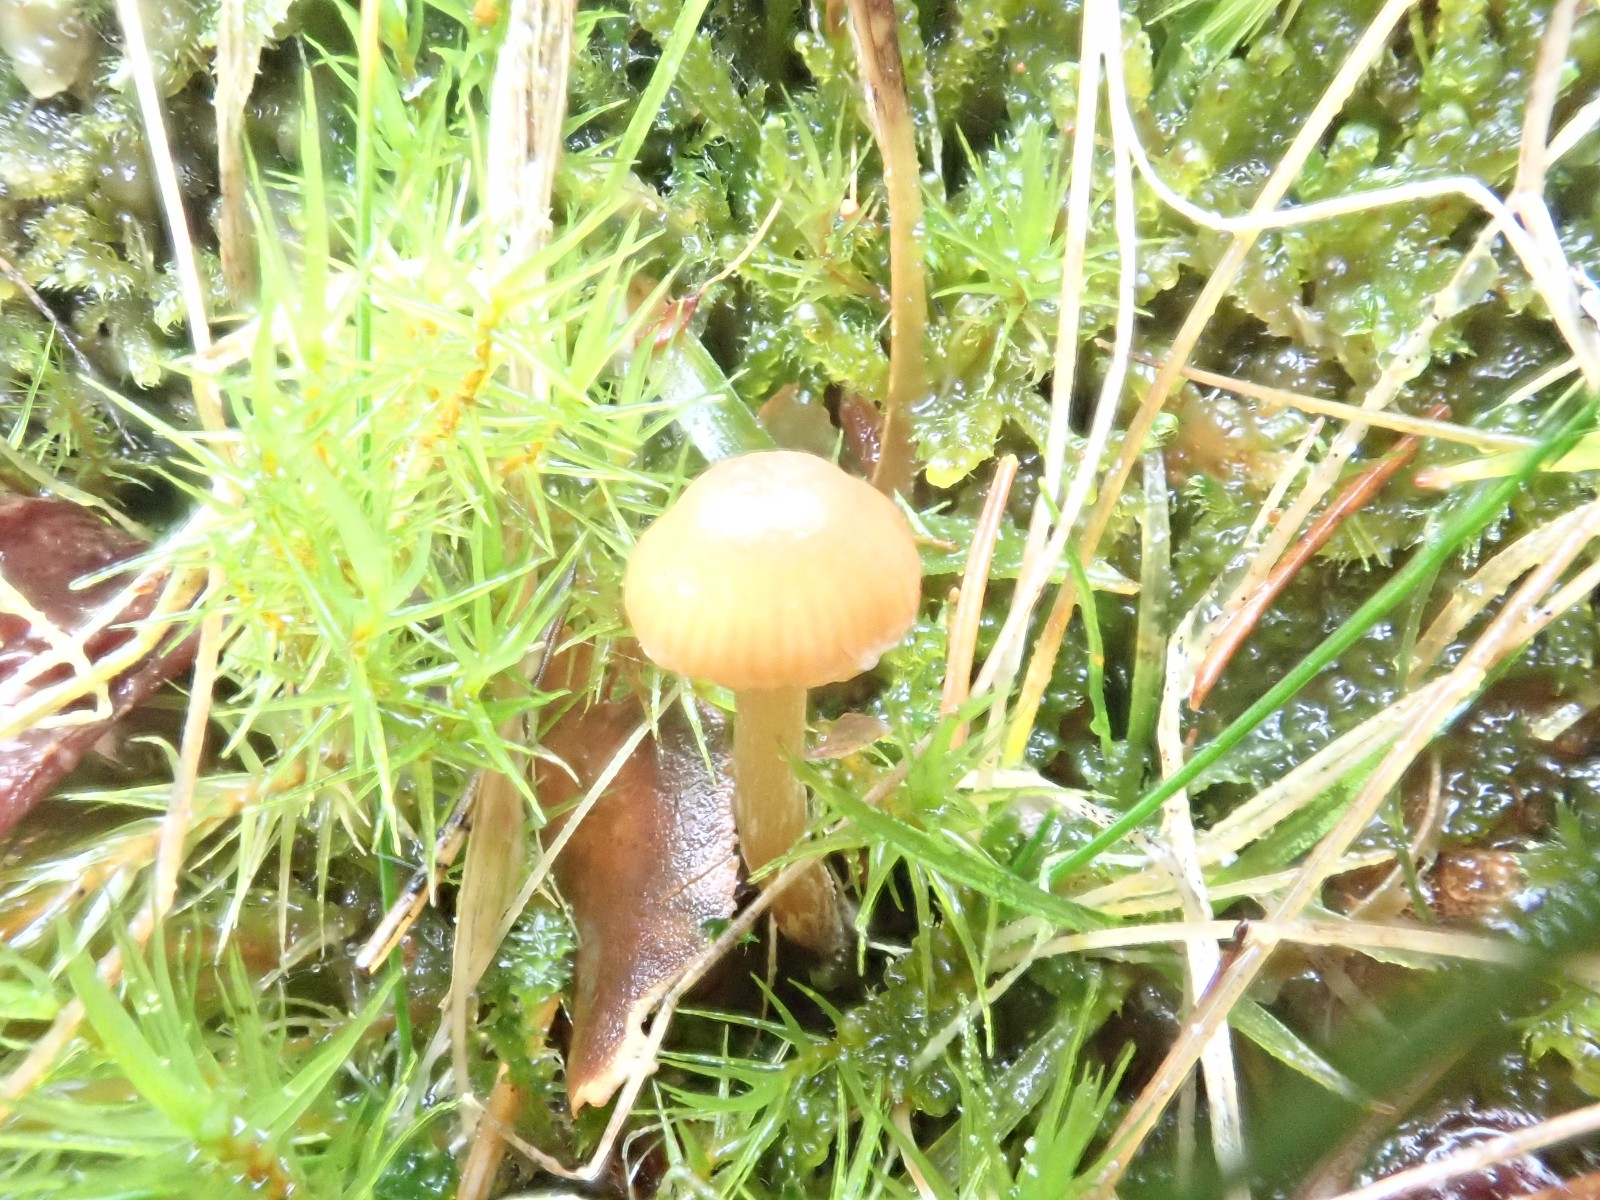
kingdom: Fungi
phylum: Basidiomycota
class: Agaricomycetes
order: Agaricales
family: Hymenogastraceae
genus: Galerina
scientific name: Galerina
